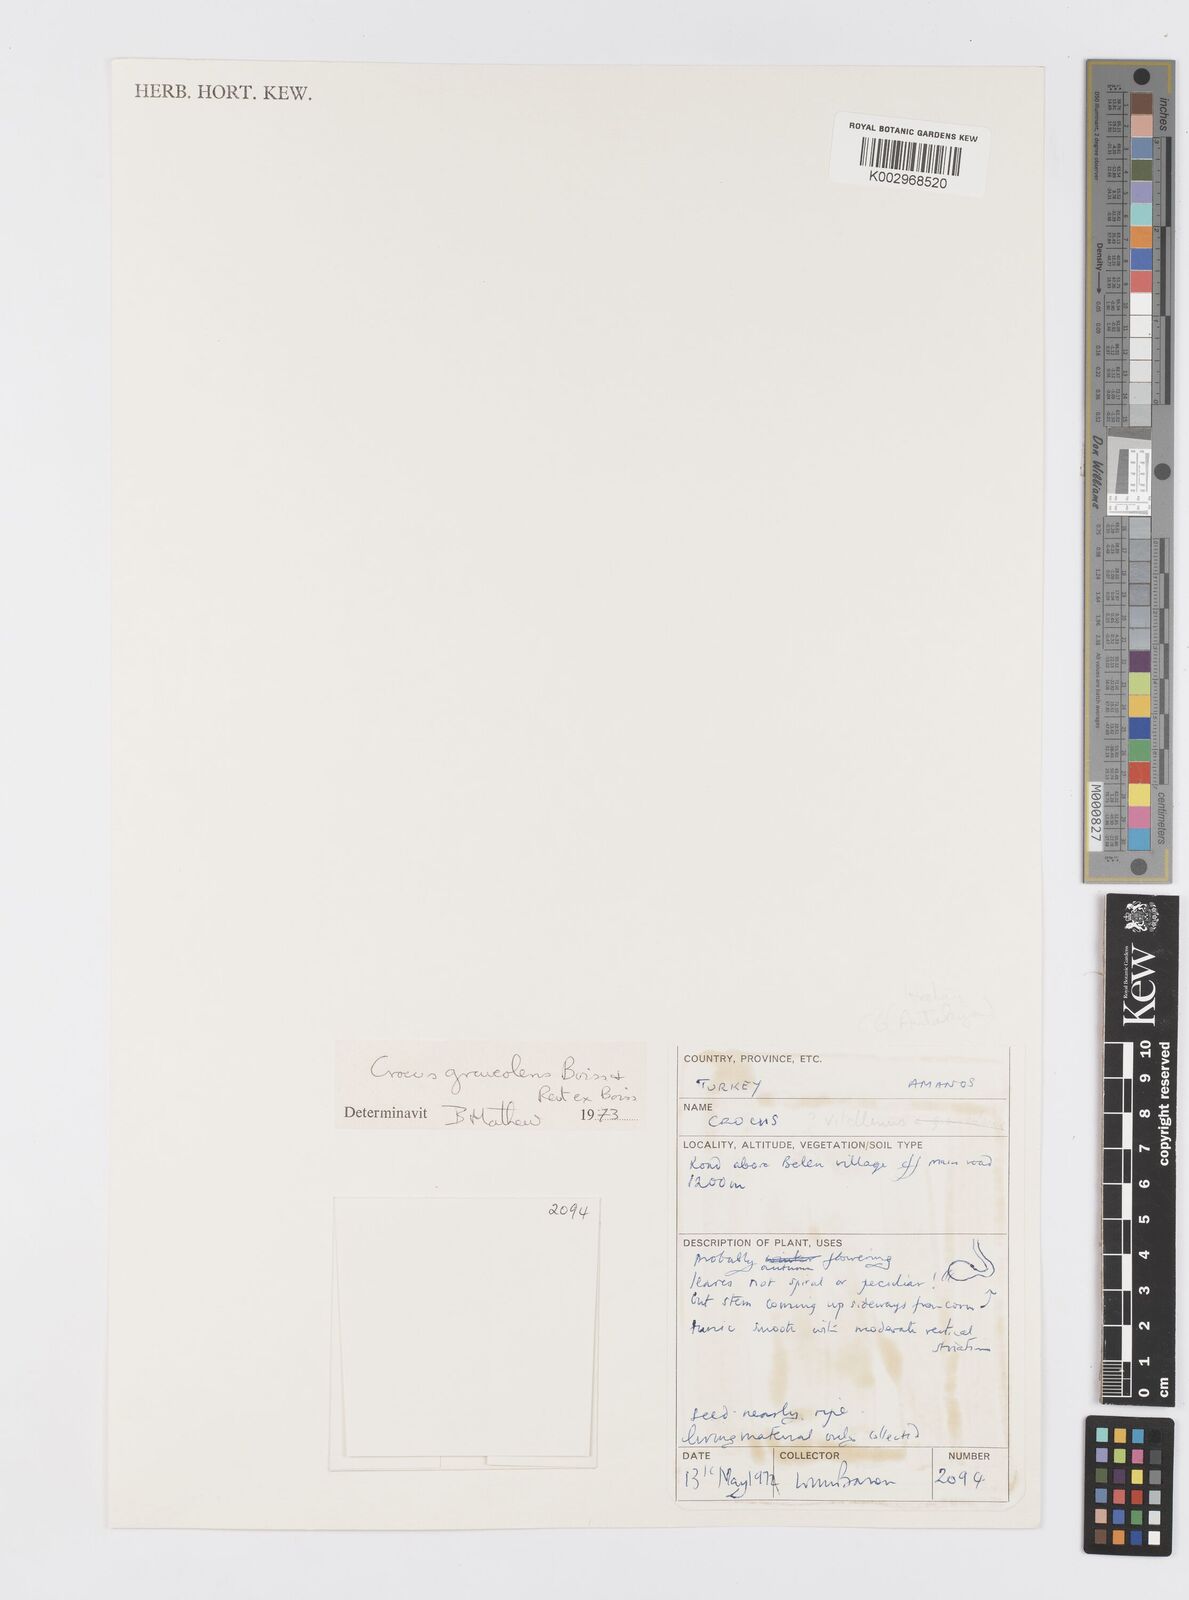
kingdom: Plantae
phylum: Tracheophyta
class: Liliopsida
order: Asparagales
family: Iridaceae
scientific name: Iridaceae
